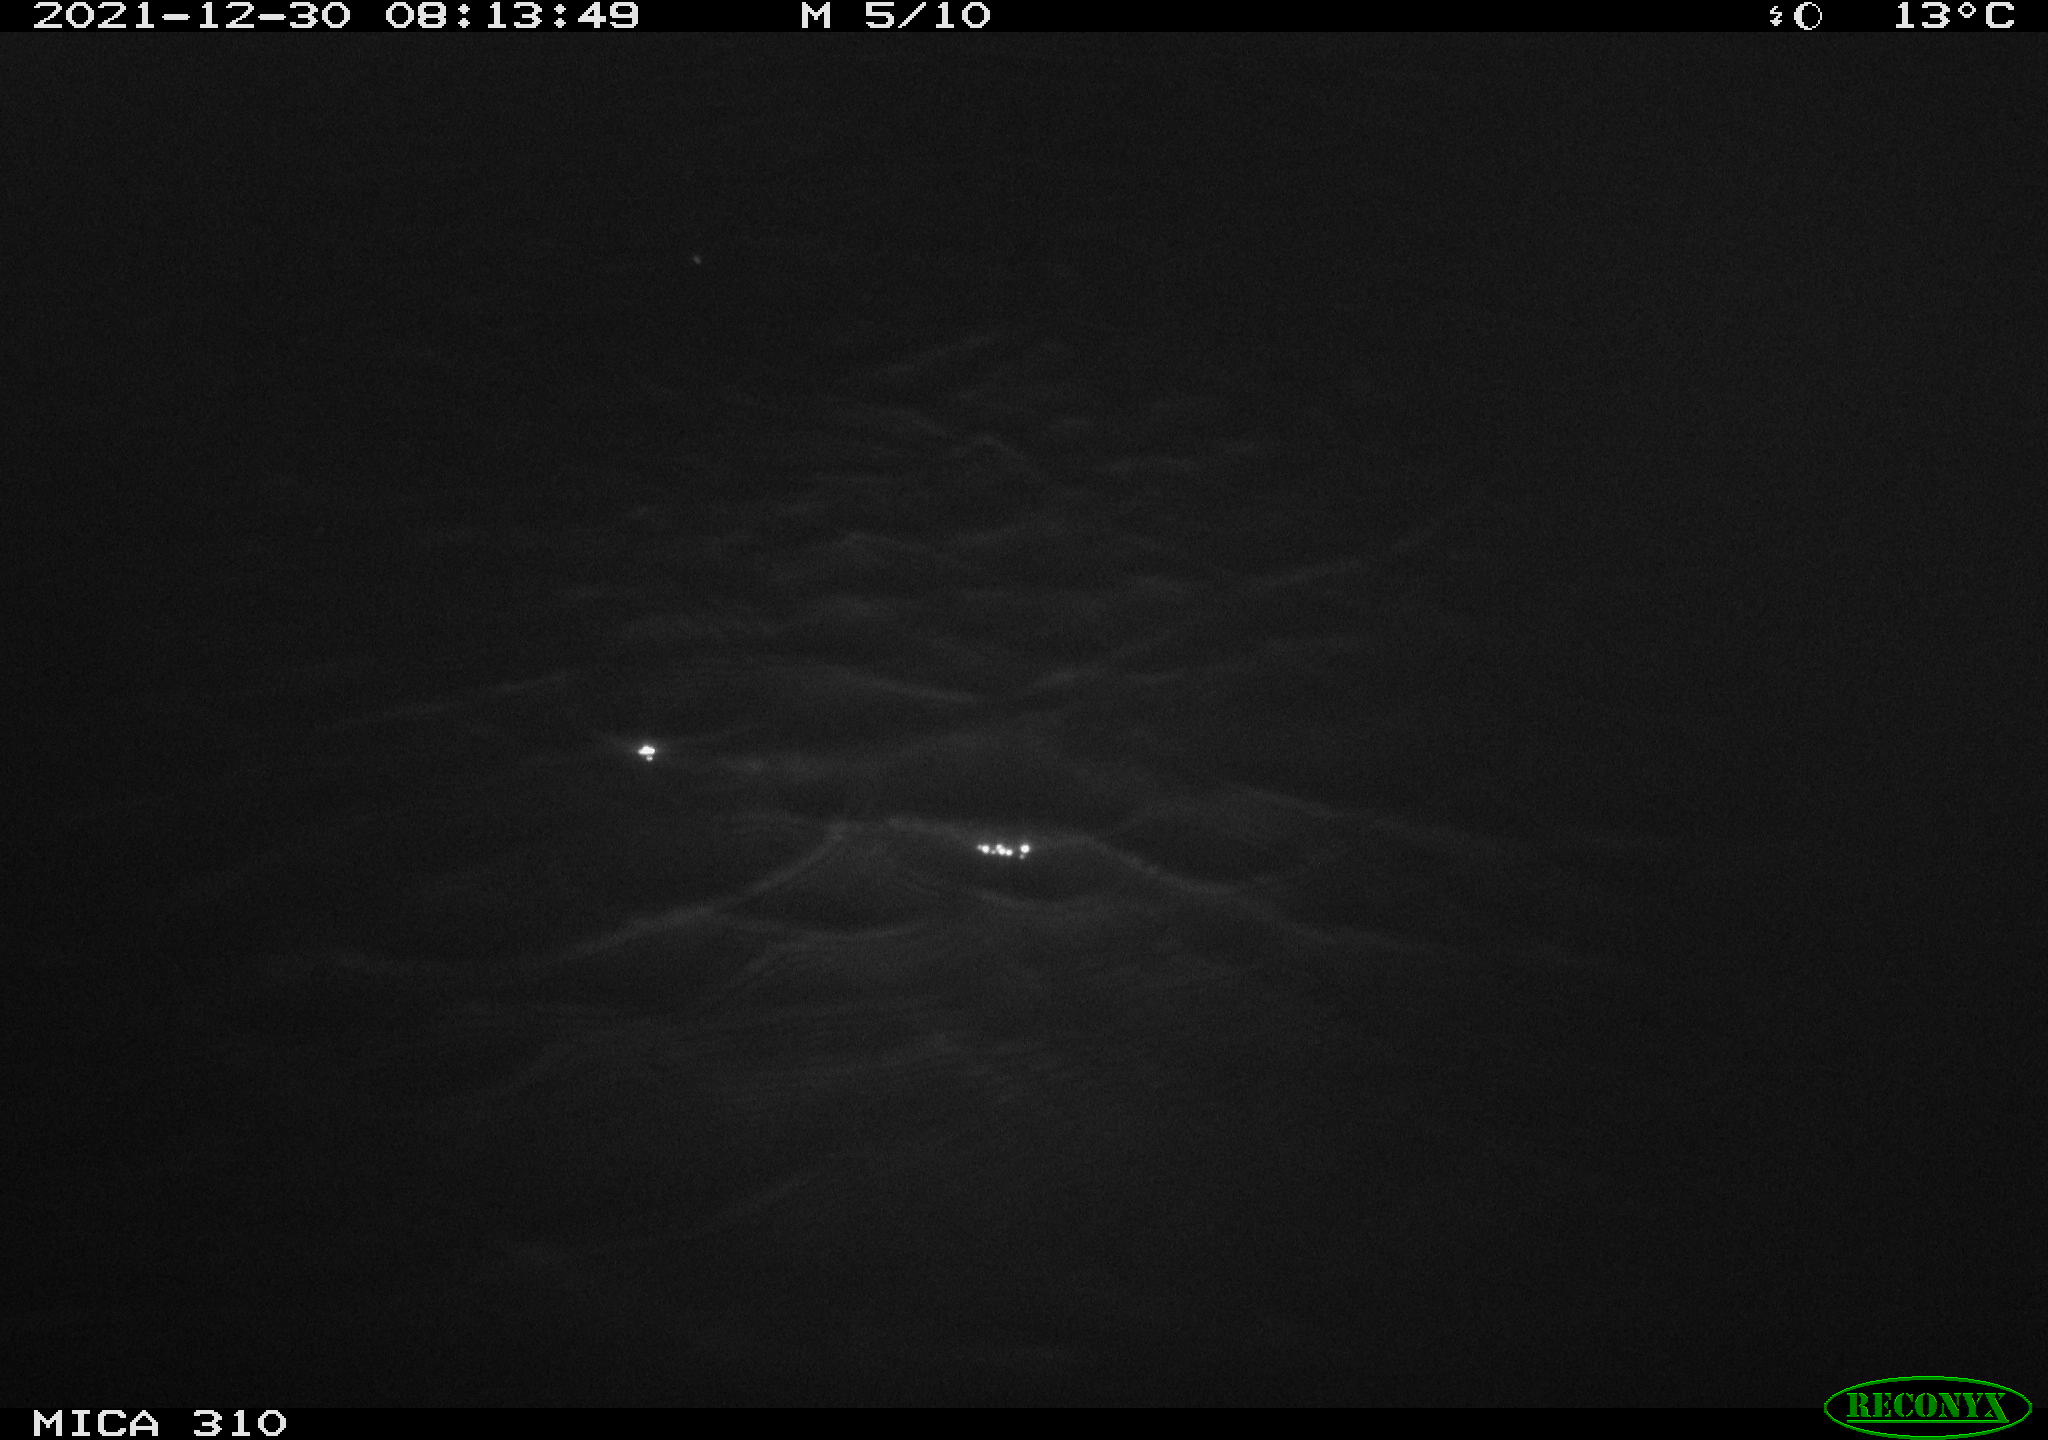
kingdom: Animalia
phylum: Chordata
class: Aves
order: Anseriformes
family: Anatidae
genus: Anas
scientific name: Anas platyrhynchos
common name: Mallard
